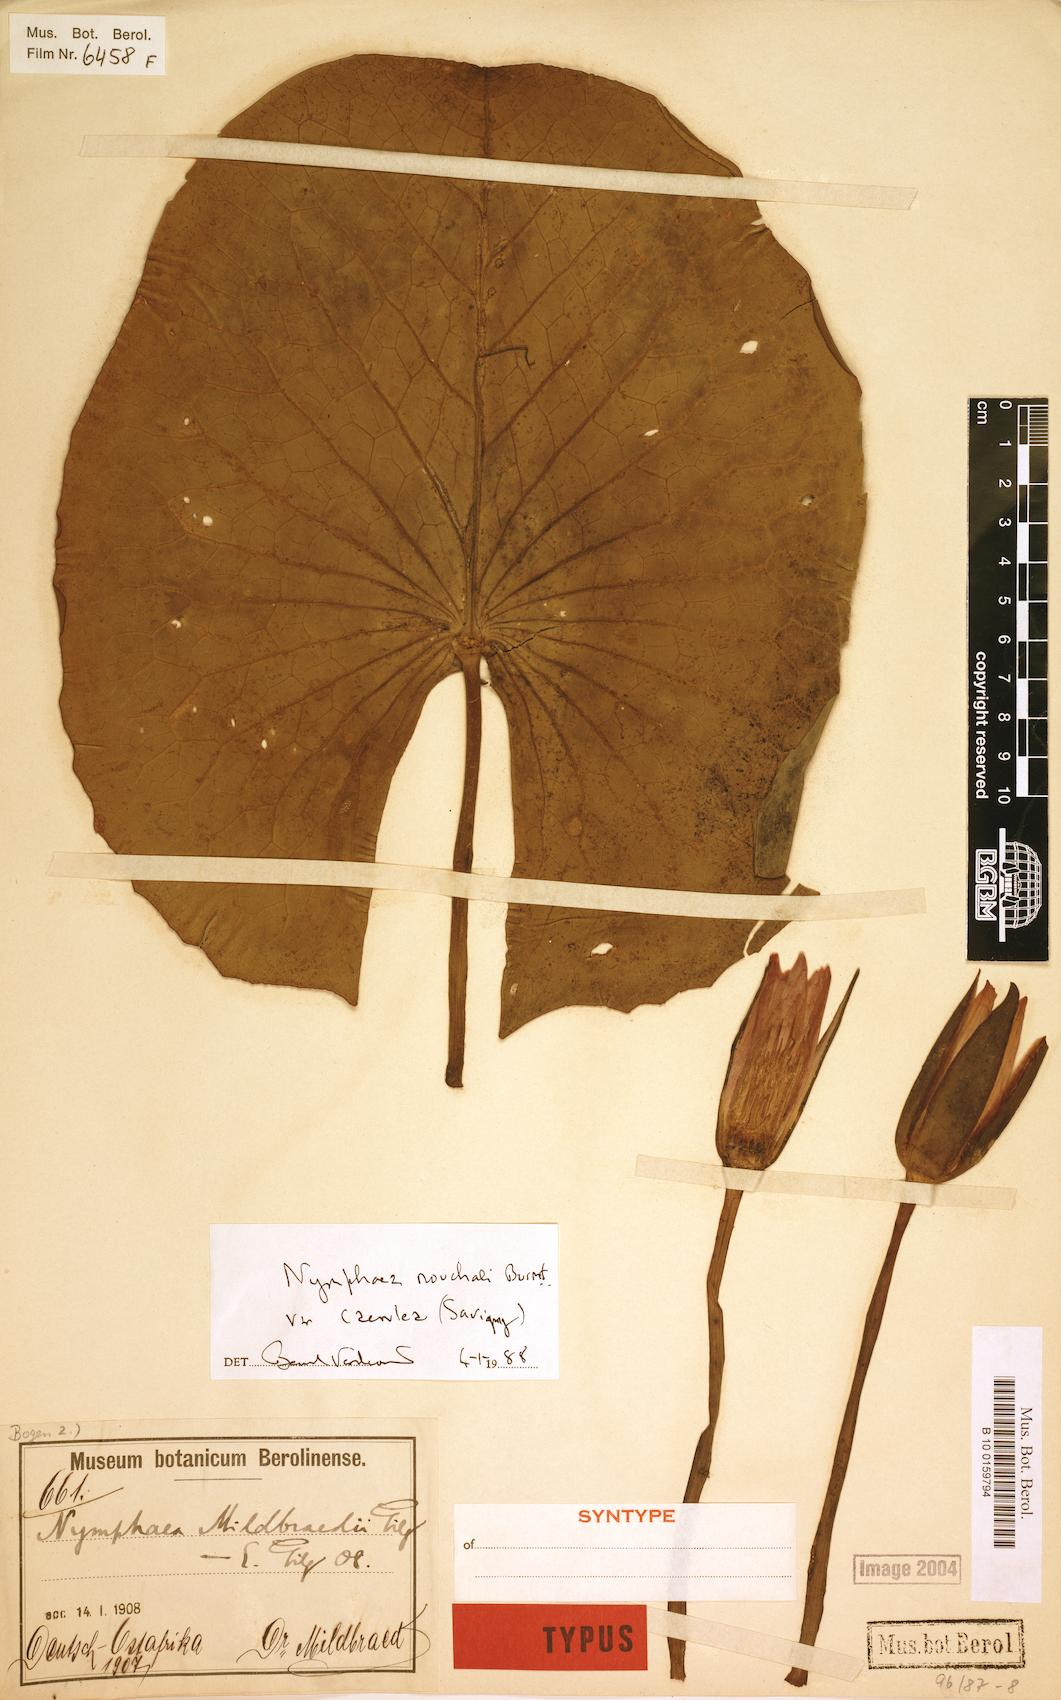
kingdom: Plantae
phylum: Tracheophyta
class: Magnoliopsida
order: Nymphaeales
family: Nymphaeaceae
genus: Nymphaea
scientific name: Nymphaea nouchali
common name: Blue lotus
